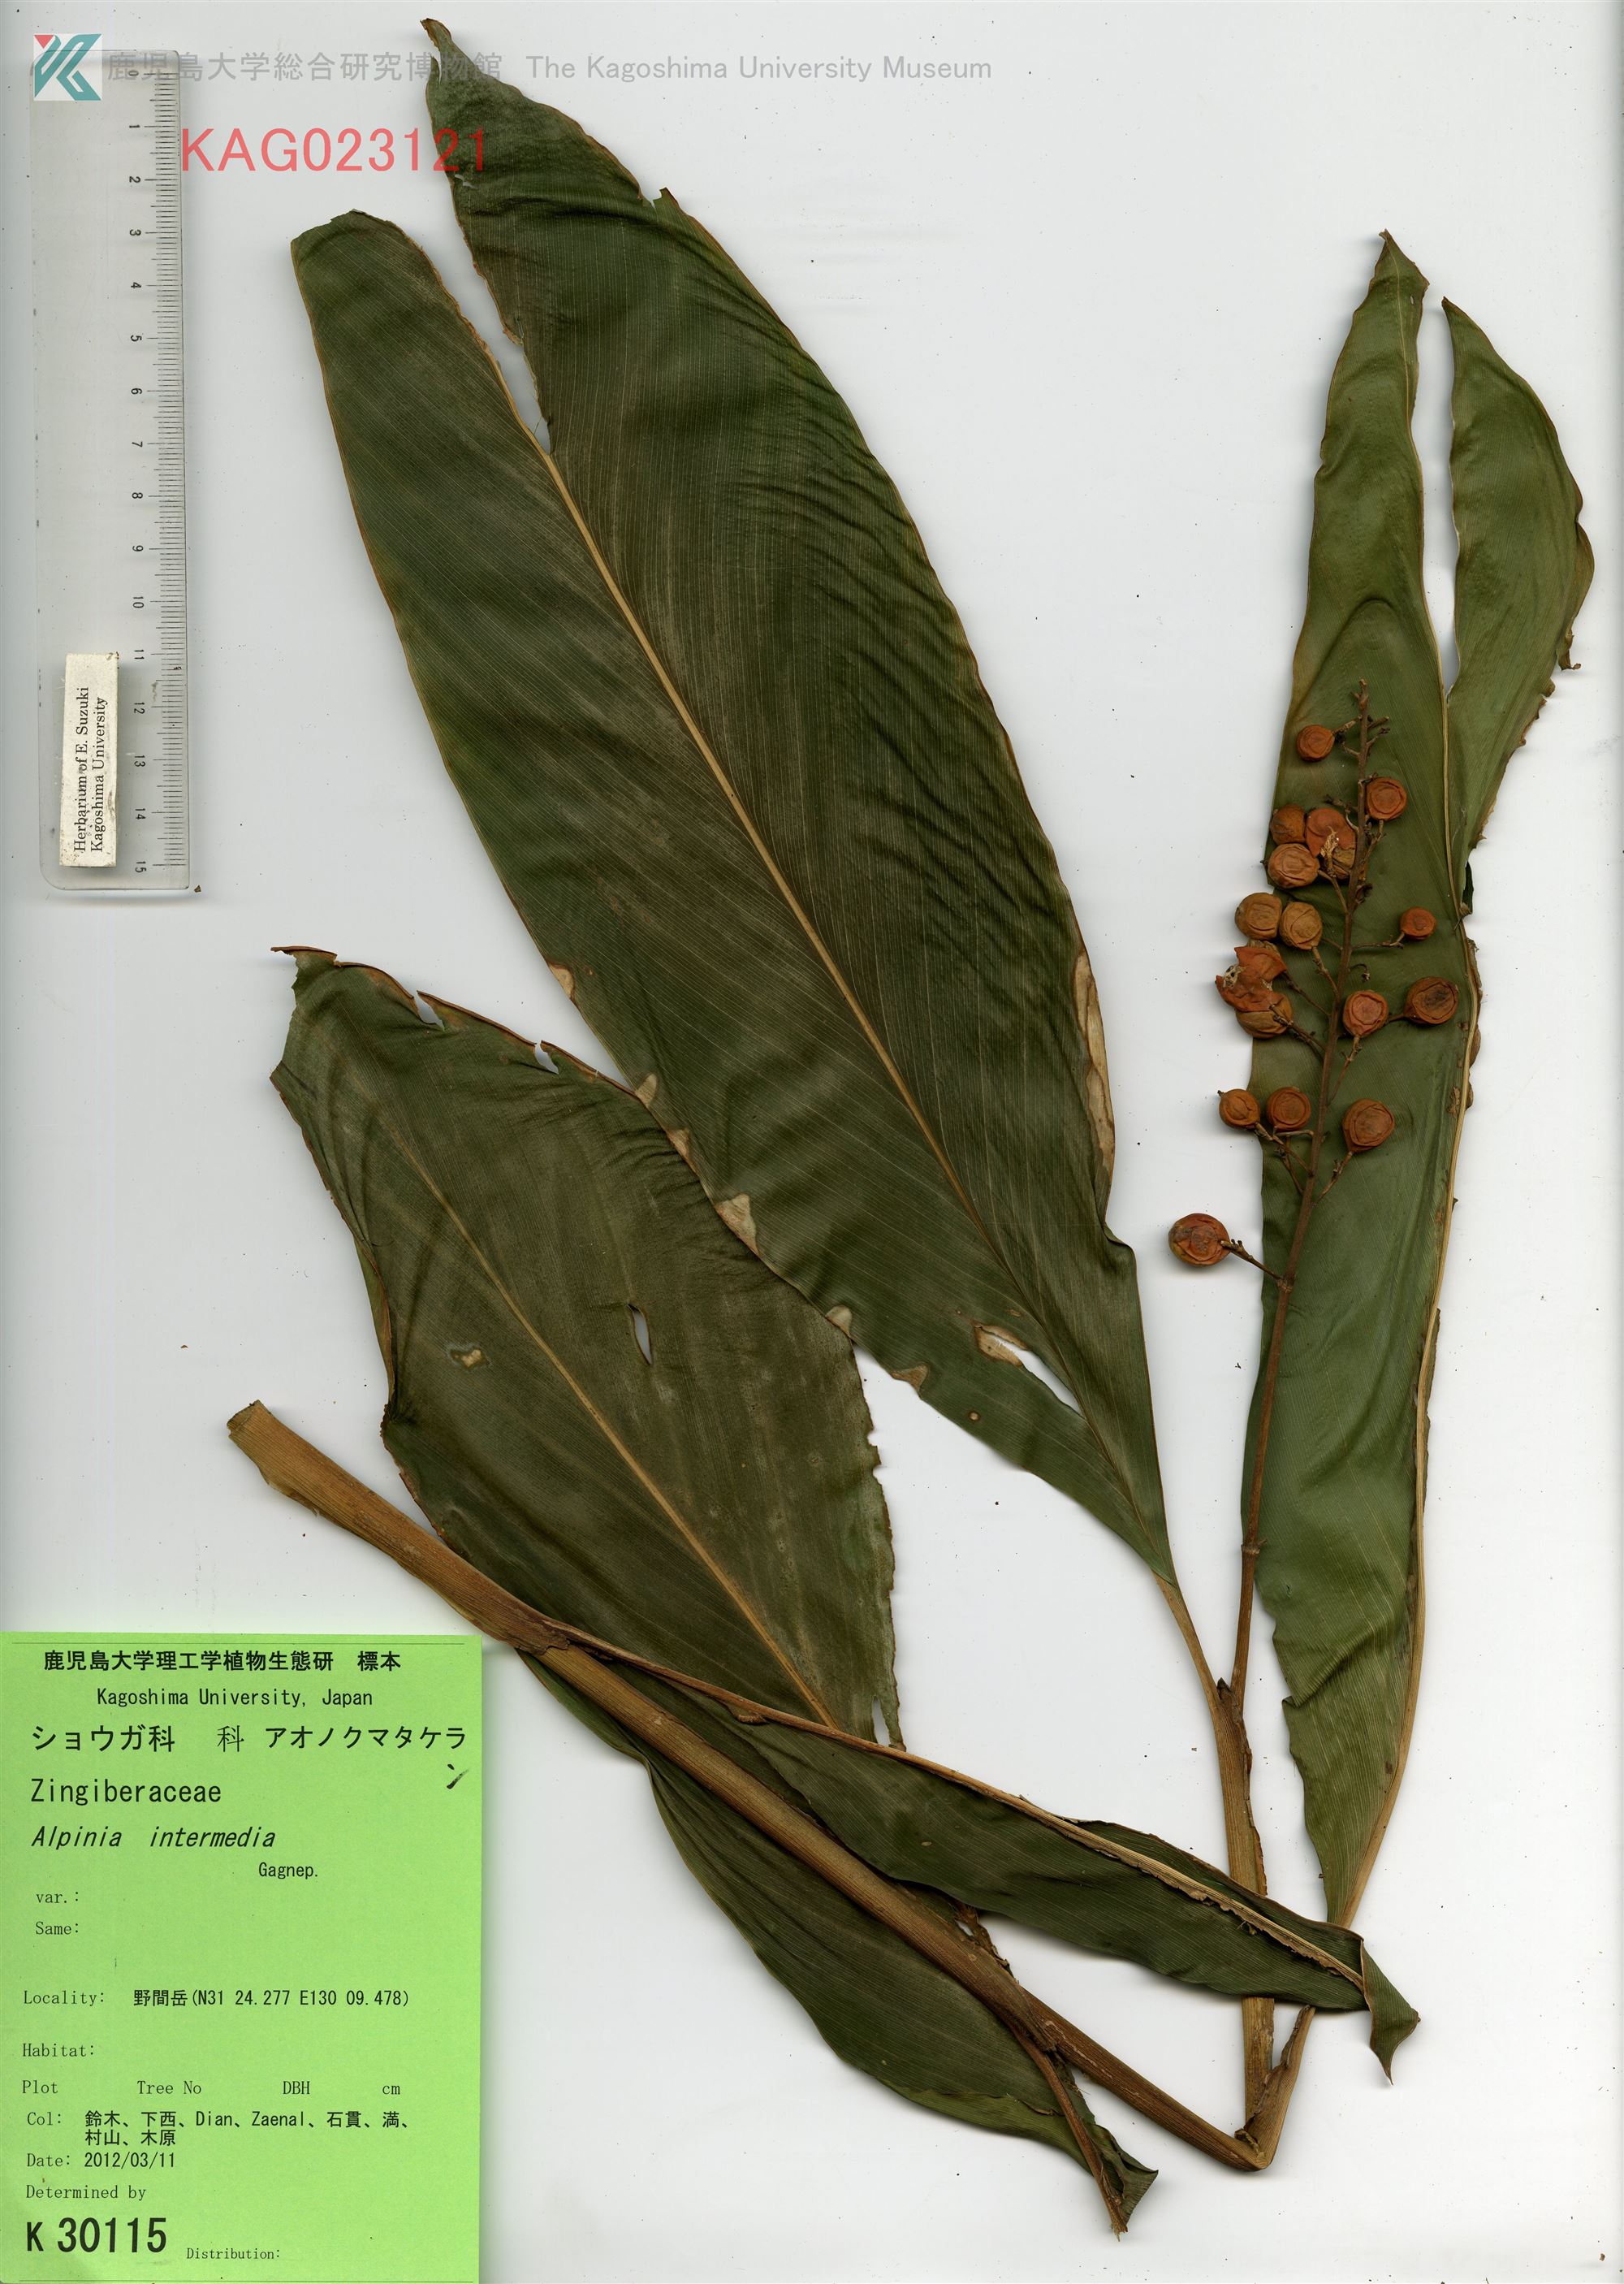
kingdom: Plantae
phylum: Tracheophyta
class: Liliopsida
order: Zingiberales
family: Zingiberaceae
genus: Alpinia
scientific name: Alpinia intermedia
